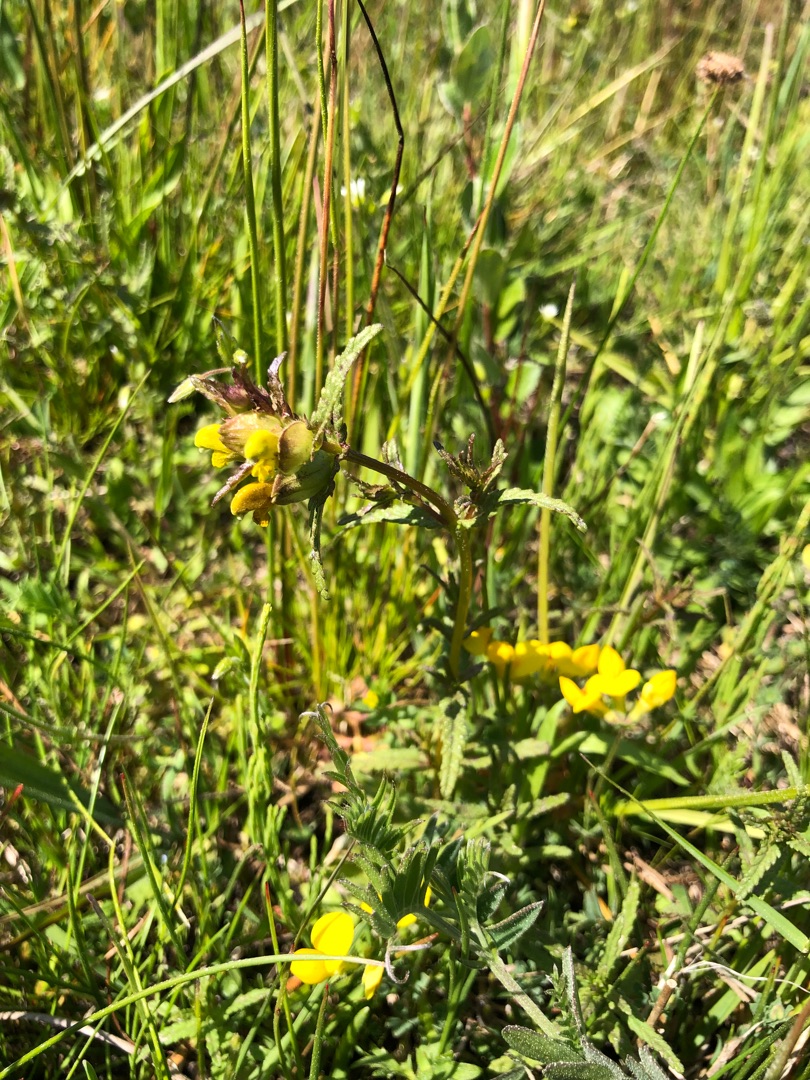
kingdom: Plantae
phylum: Tracheophyta
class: Magnoliopsida
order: Lamiales
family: Orobanchaceae
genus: Rhinanthus
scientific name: Rhinanthus minor
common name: Liden skjaller
